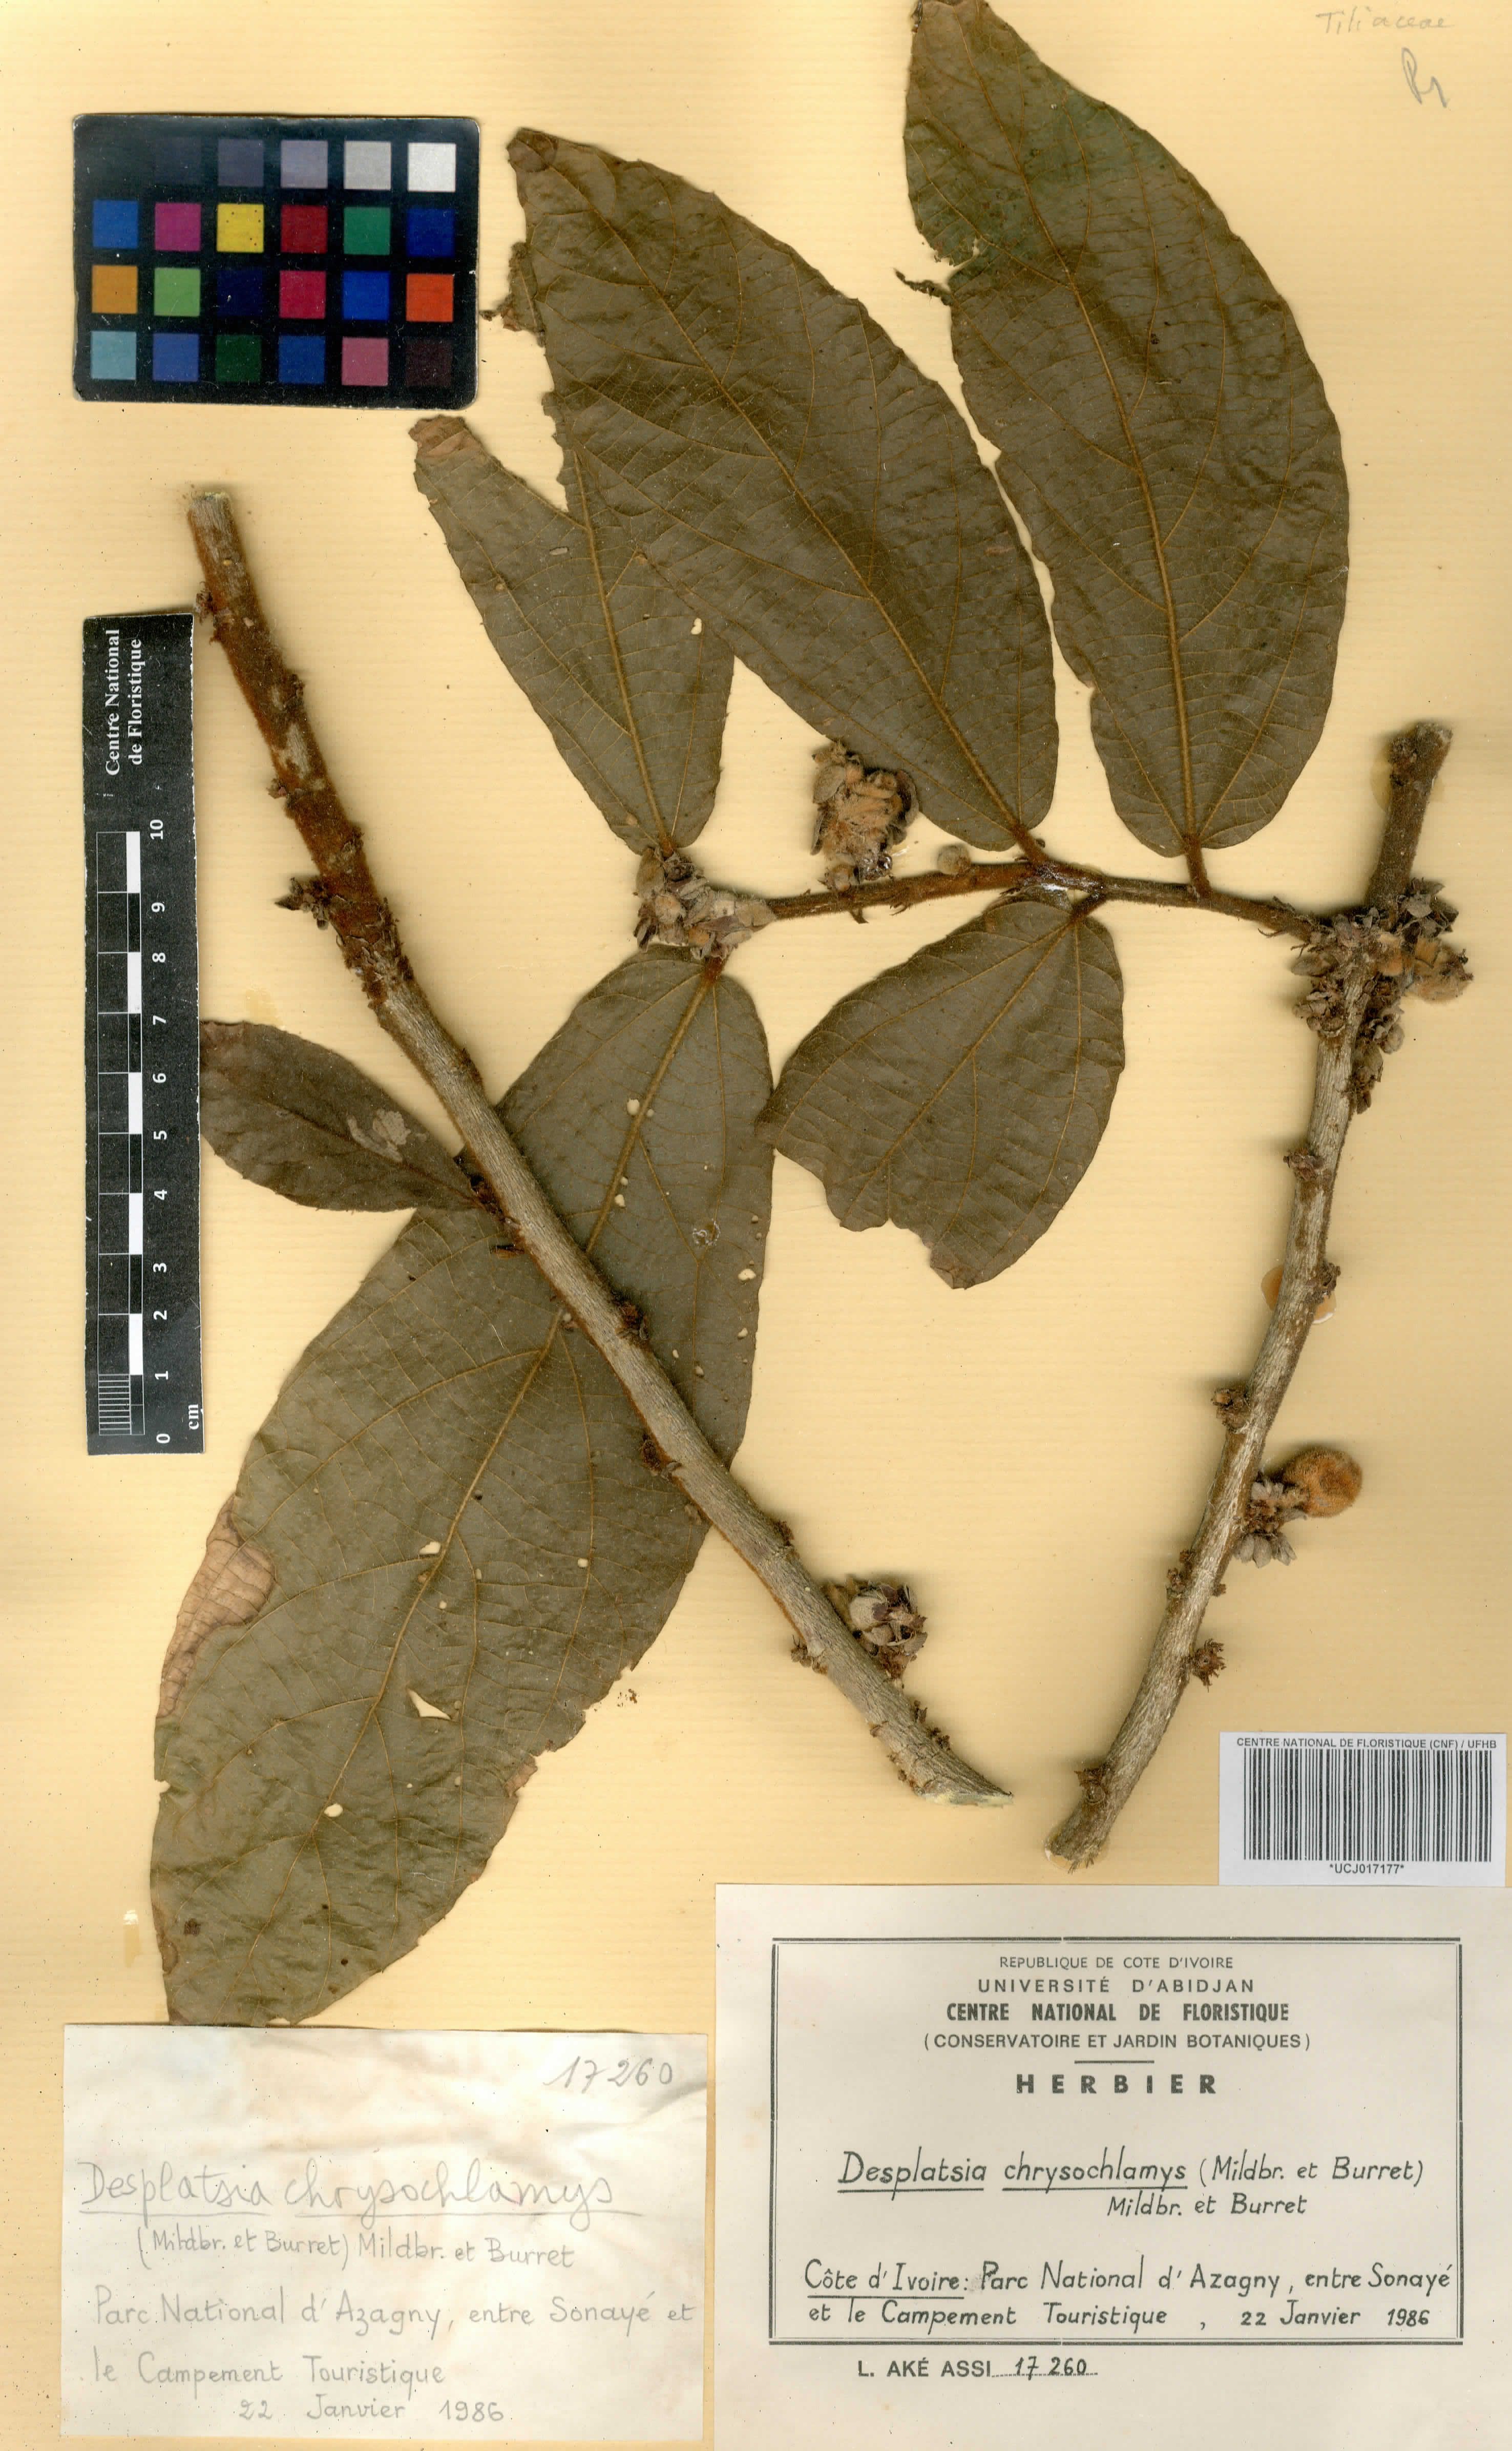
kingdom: Plantae
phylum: Tracheophyta
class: Magnoliopsida
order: Malvales
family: Malvaceae
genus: Desplatsia
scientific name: Desplatsia chrysochlamys
